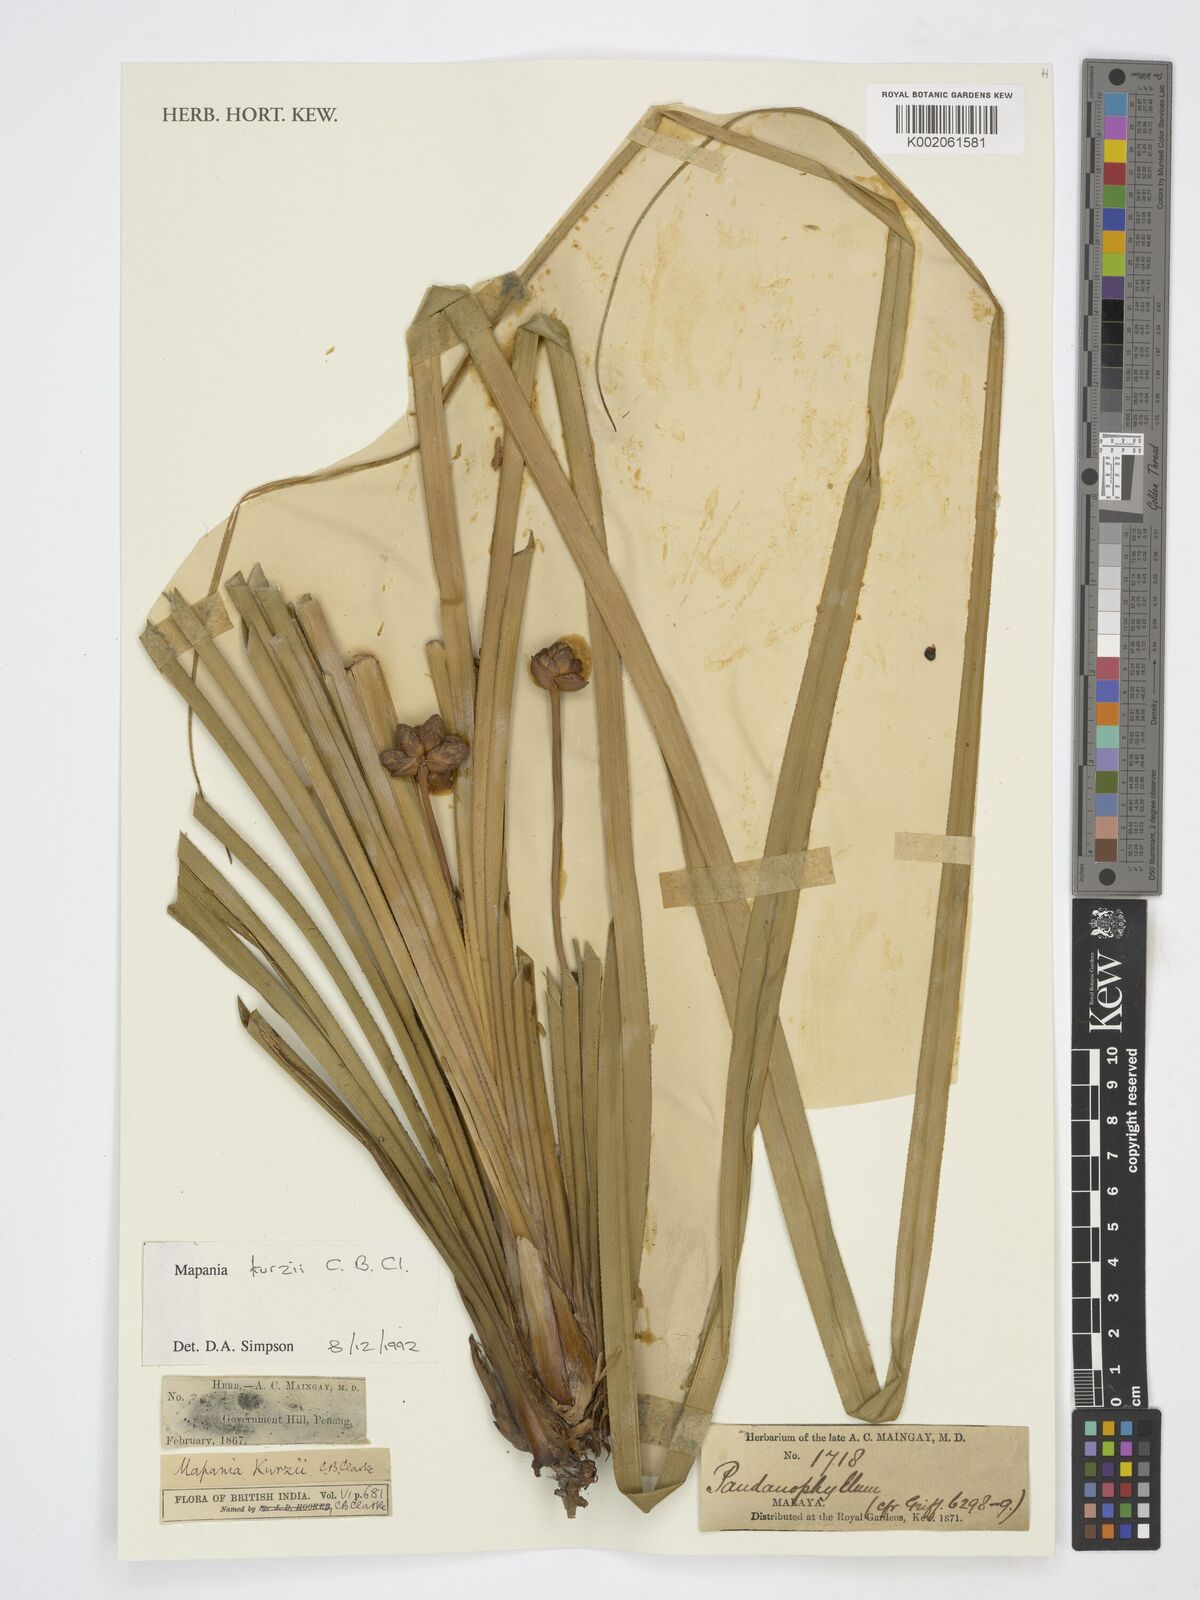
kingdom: Plantae
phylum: Tracheophyta
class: Liliopsida
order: Poales
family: Cyperaceae
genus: Mapania
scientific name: Mapania kurzii
